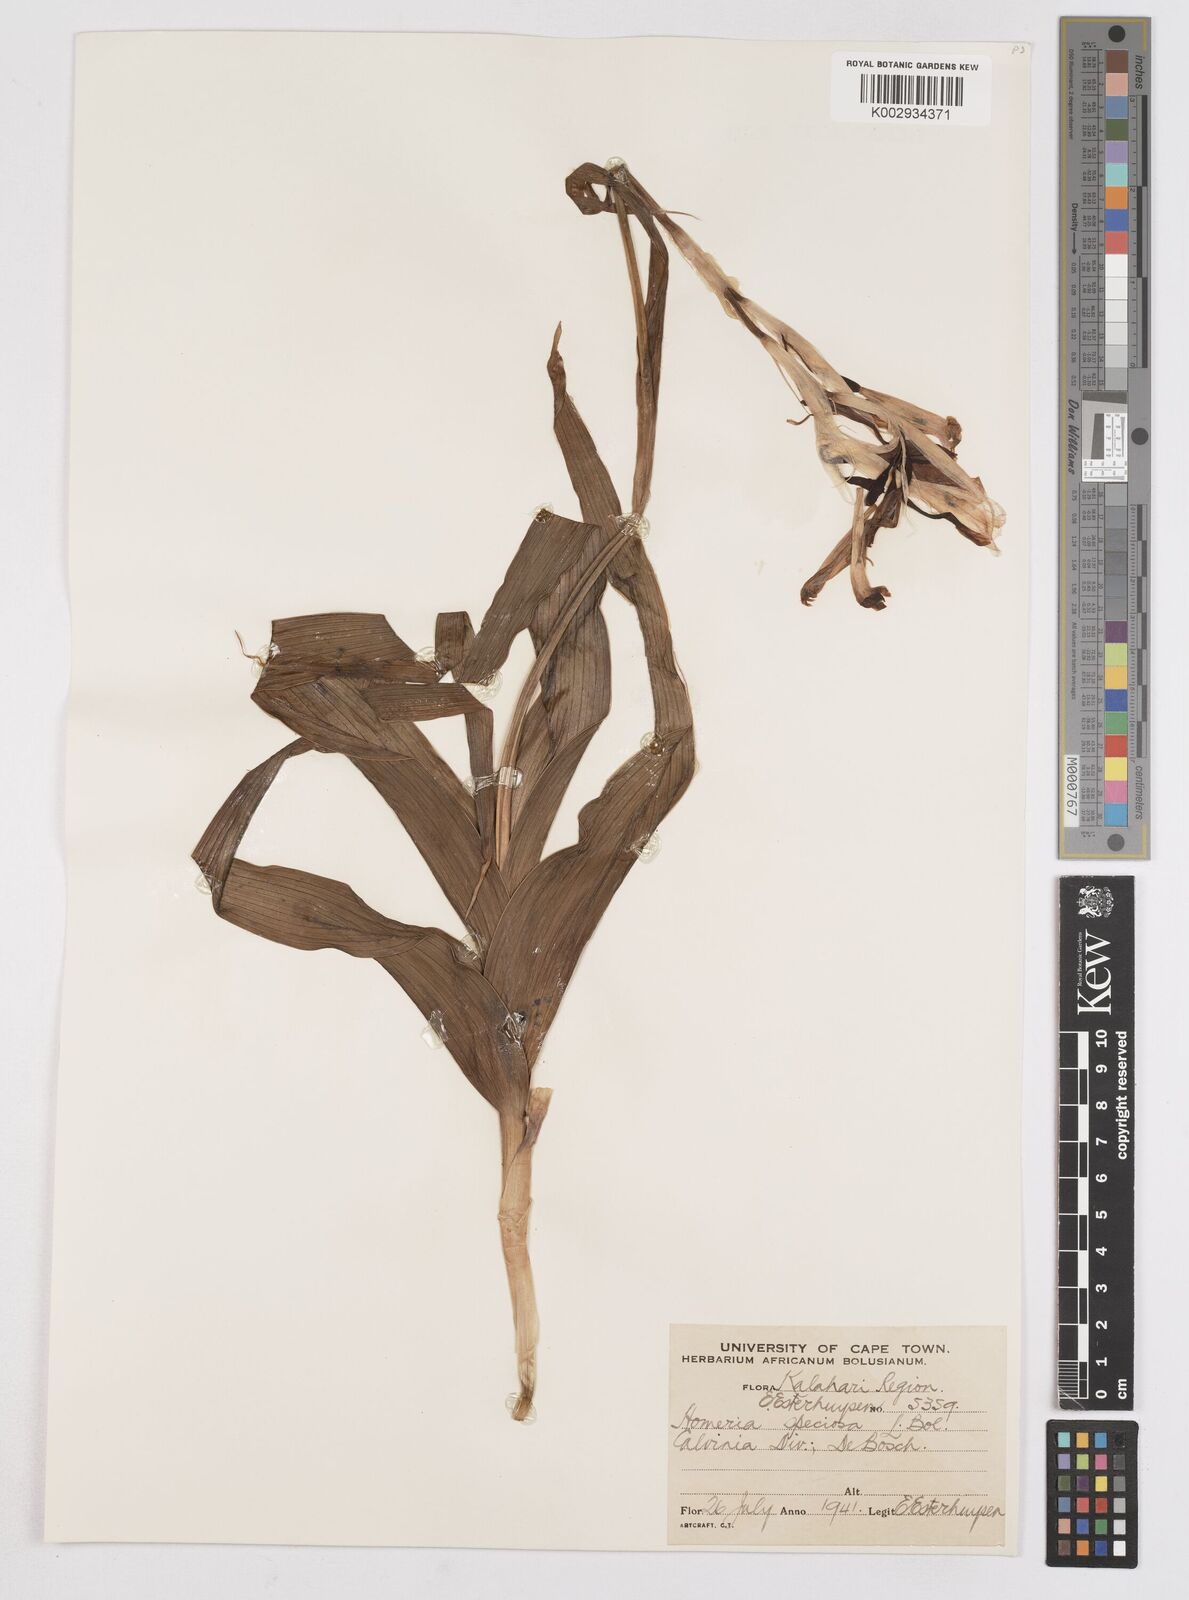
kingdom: Plantae
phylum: Tracheophyta
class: Liliopsida
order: Asparagales
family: Iridaceae
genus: Moraea
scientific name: Moraea speciosa
